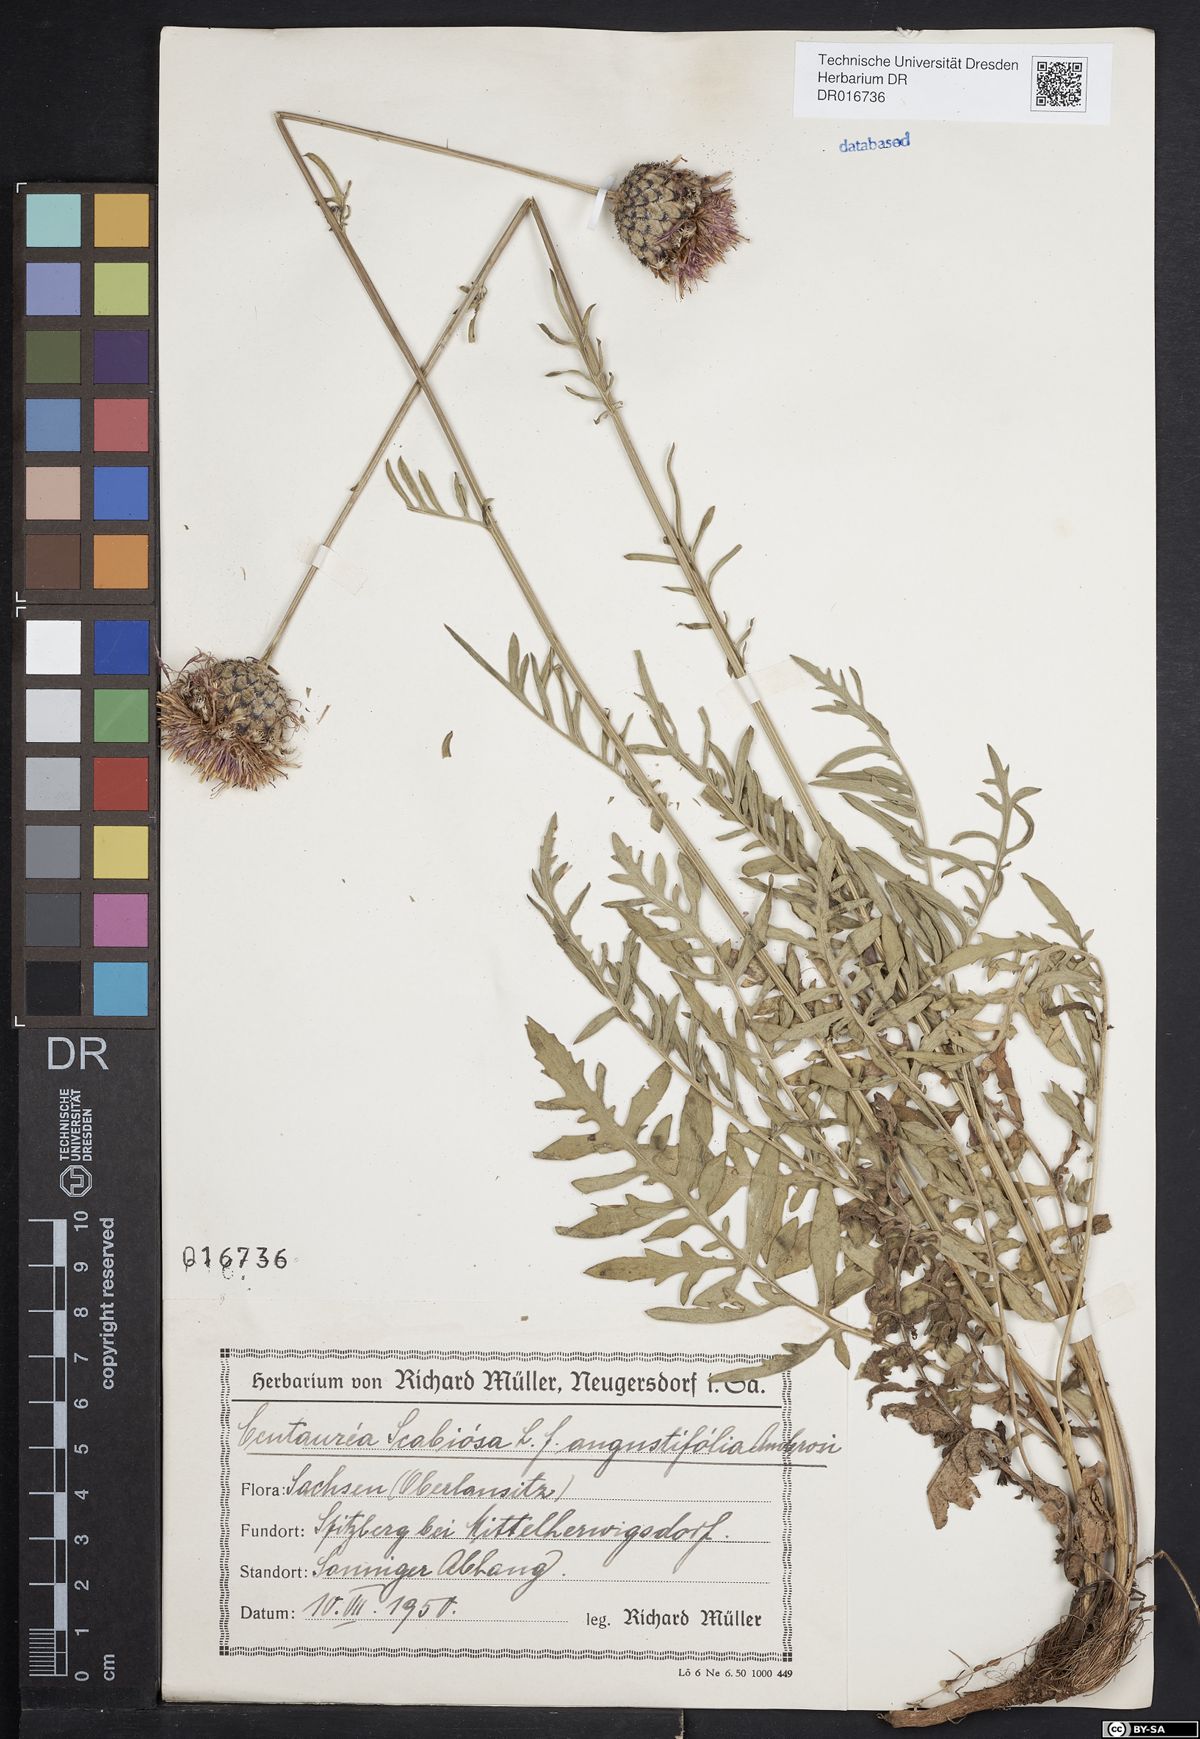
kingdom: Plantae
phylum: Tracheophyta
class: Magnoliopsida
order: Asterales
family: Asteraceae
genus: Centaurea
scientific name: Centaurea scabiosa
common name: Greater knapweed
